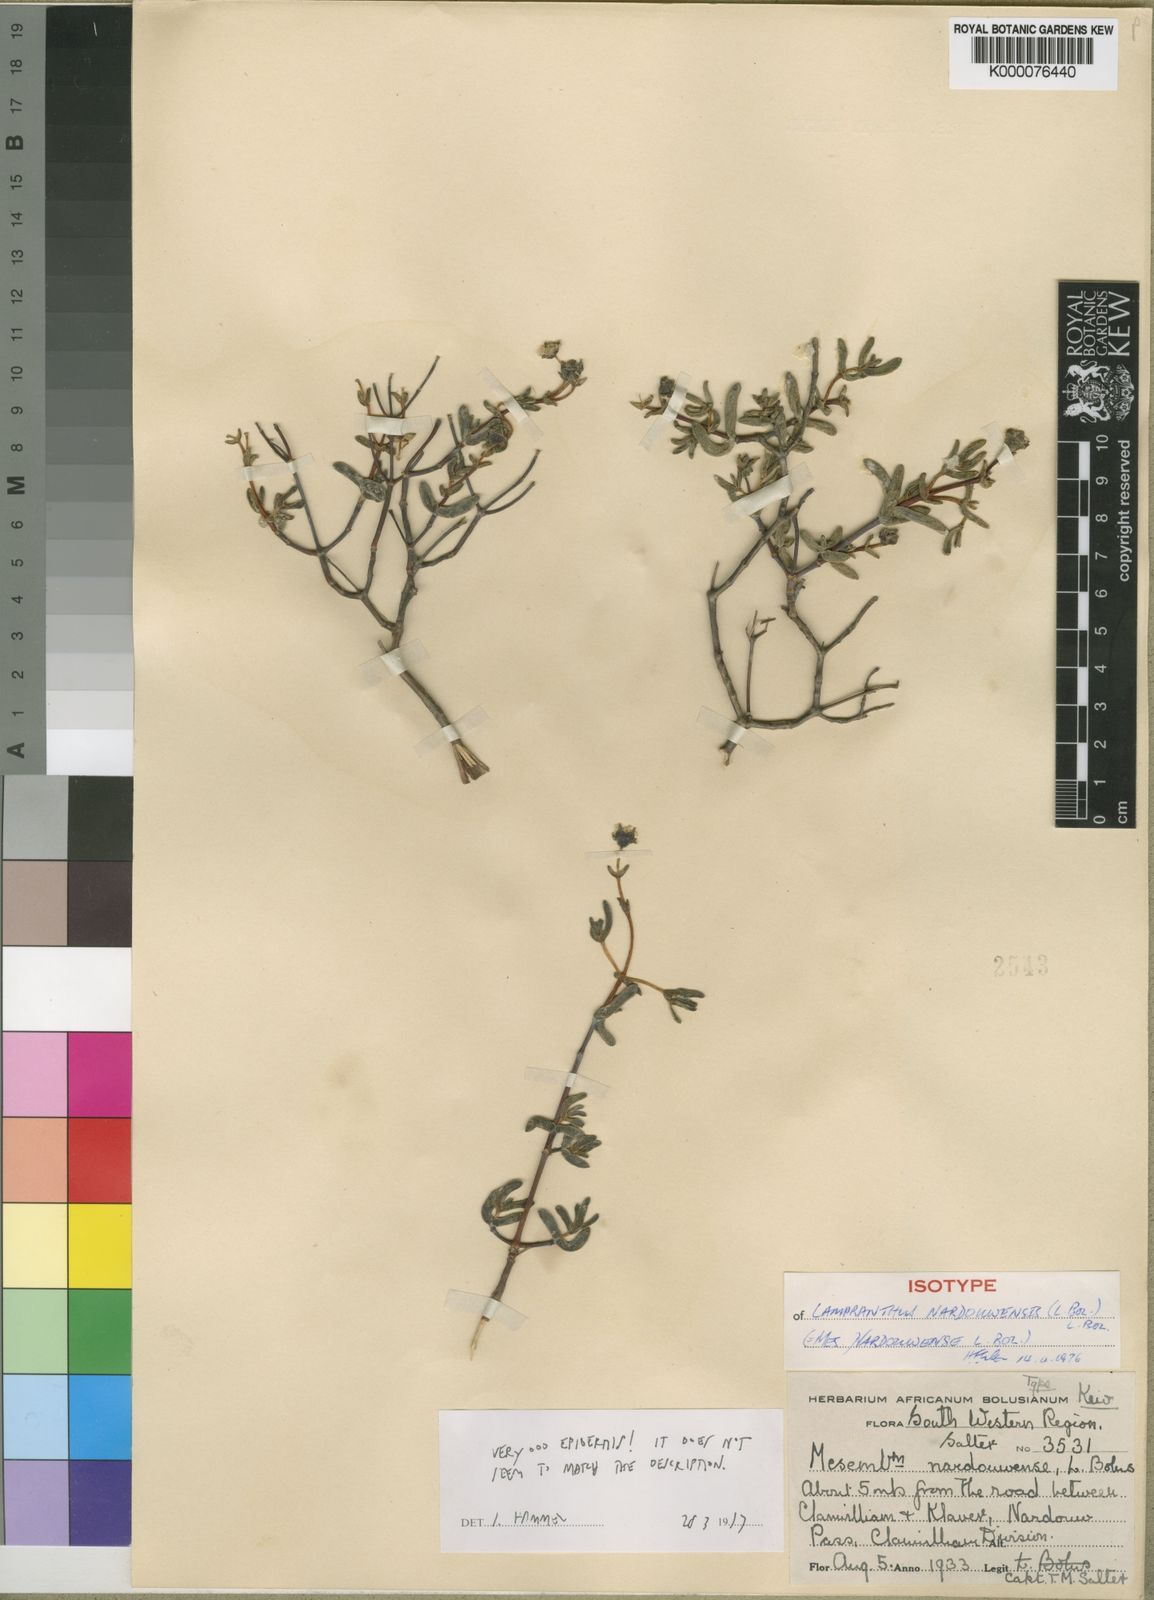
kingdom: Plantae
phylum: Tracheophyta
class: Magnoliopsida
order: Caryophyllales
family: Aizoaceae
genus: Lampranthus
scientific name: Lampranthus nardouwensis
